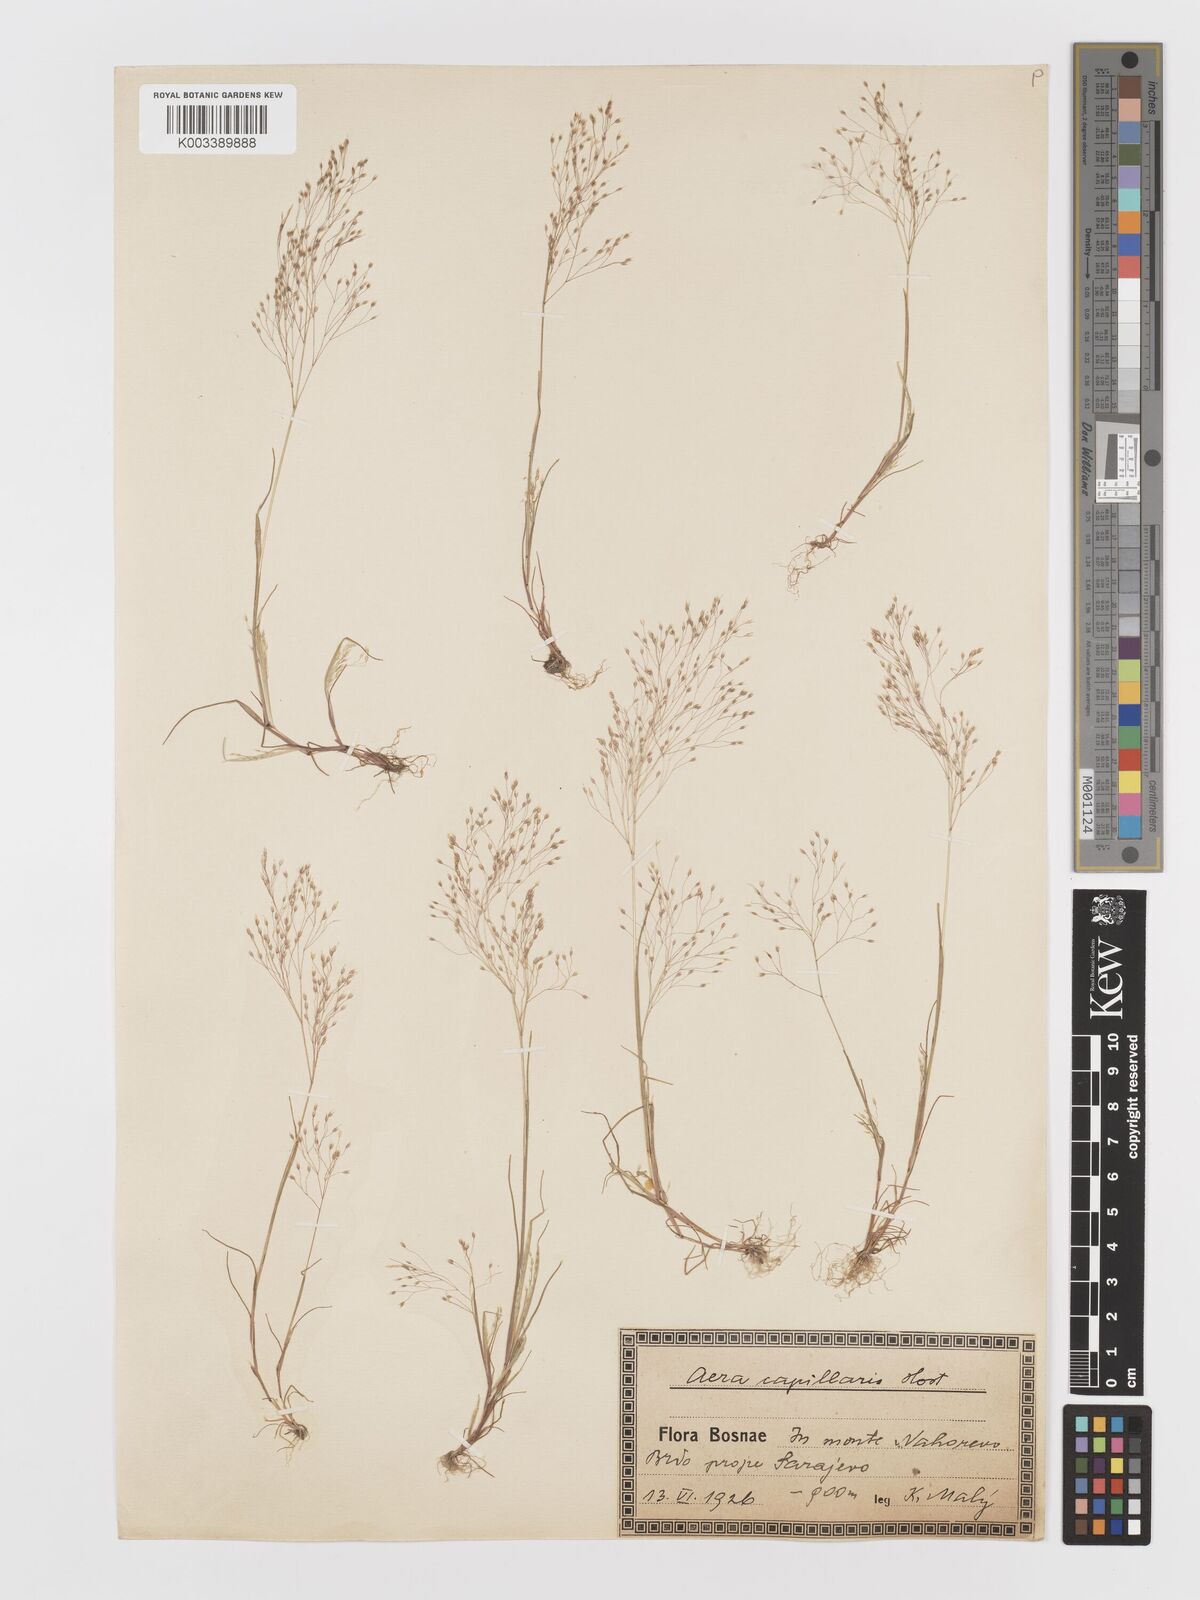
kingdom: Plantae
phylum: Tracheophyta
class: Liliopsida
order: Poales
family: Poaceae
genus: Aira
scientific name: Aira elegans
